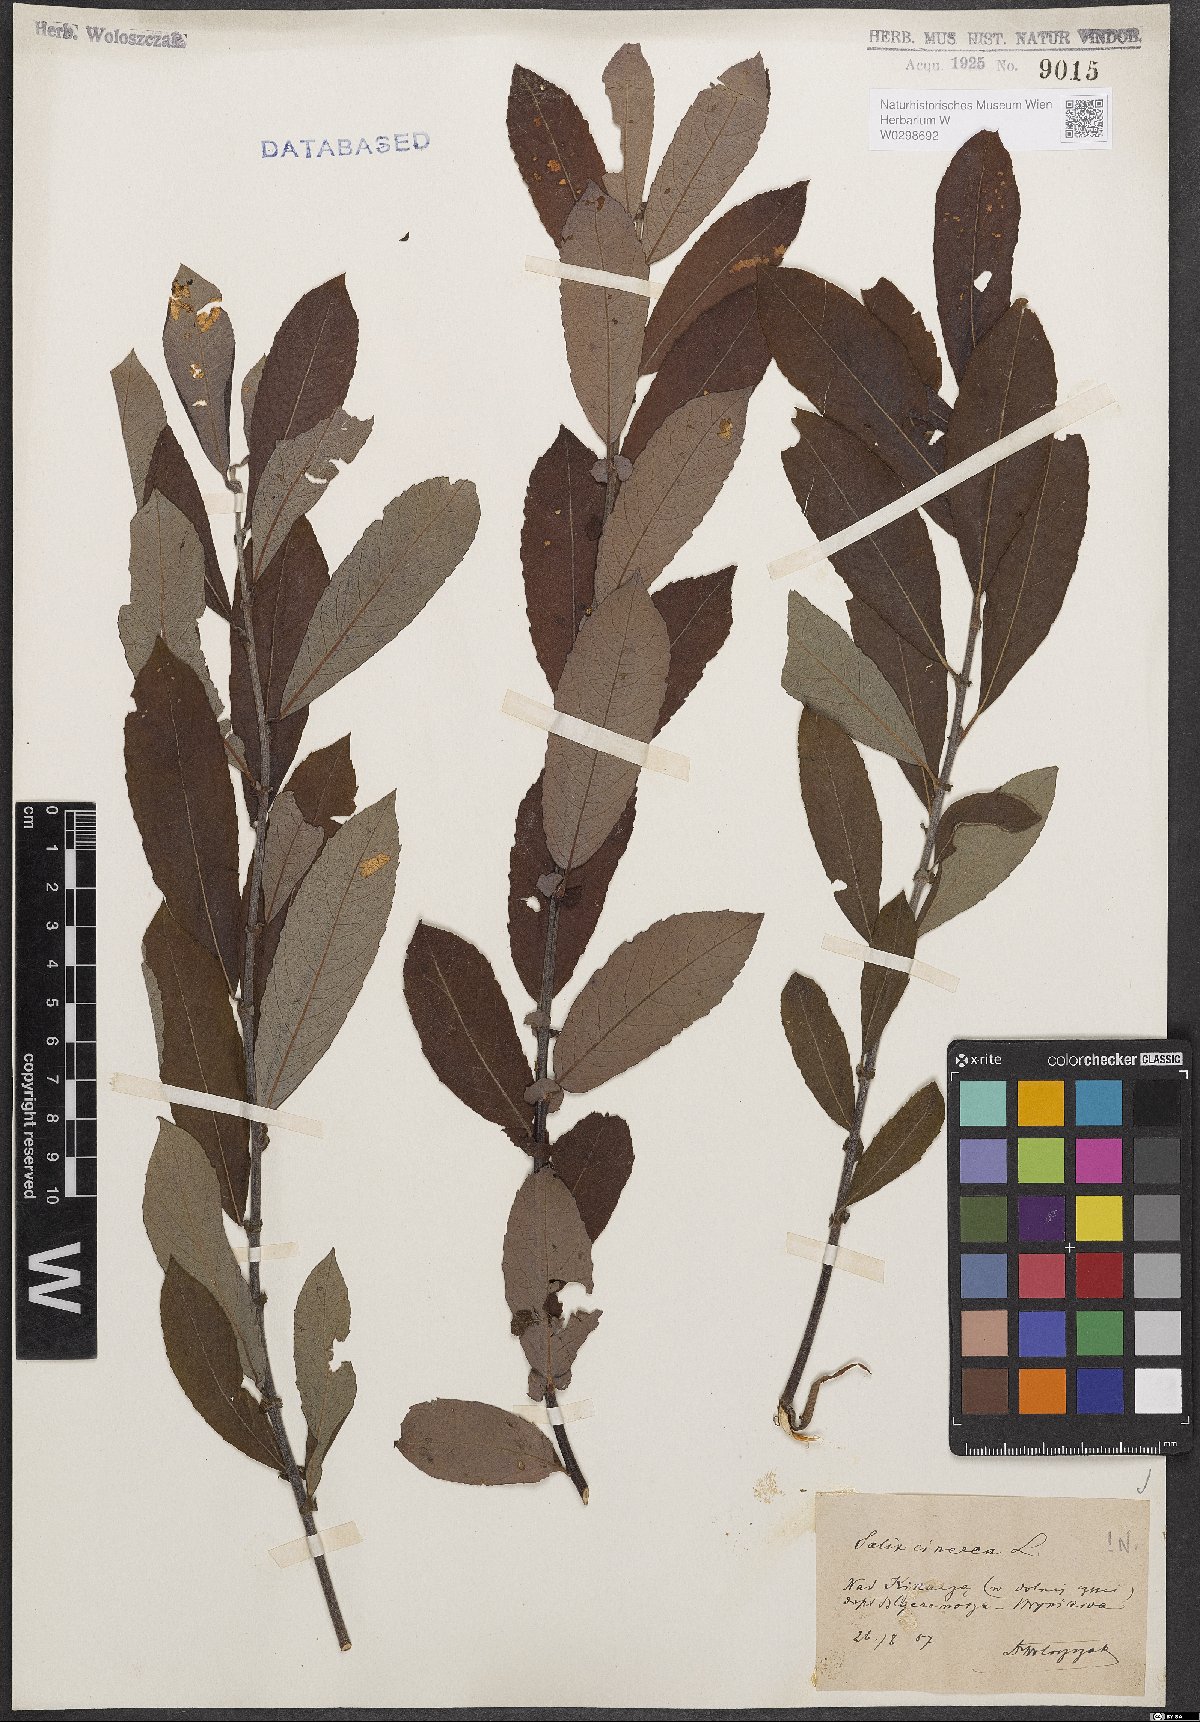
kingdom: Plantae
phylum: Tracheophyta
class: Magnoliopsida
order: Malpighiales
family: Salicaceae
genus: Salix
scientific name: Salix cinerea
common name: Common sallow
